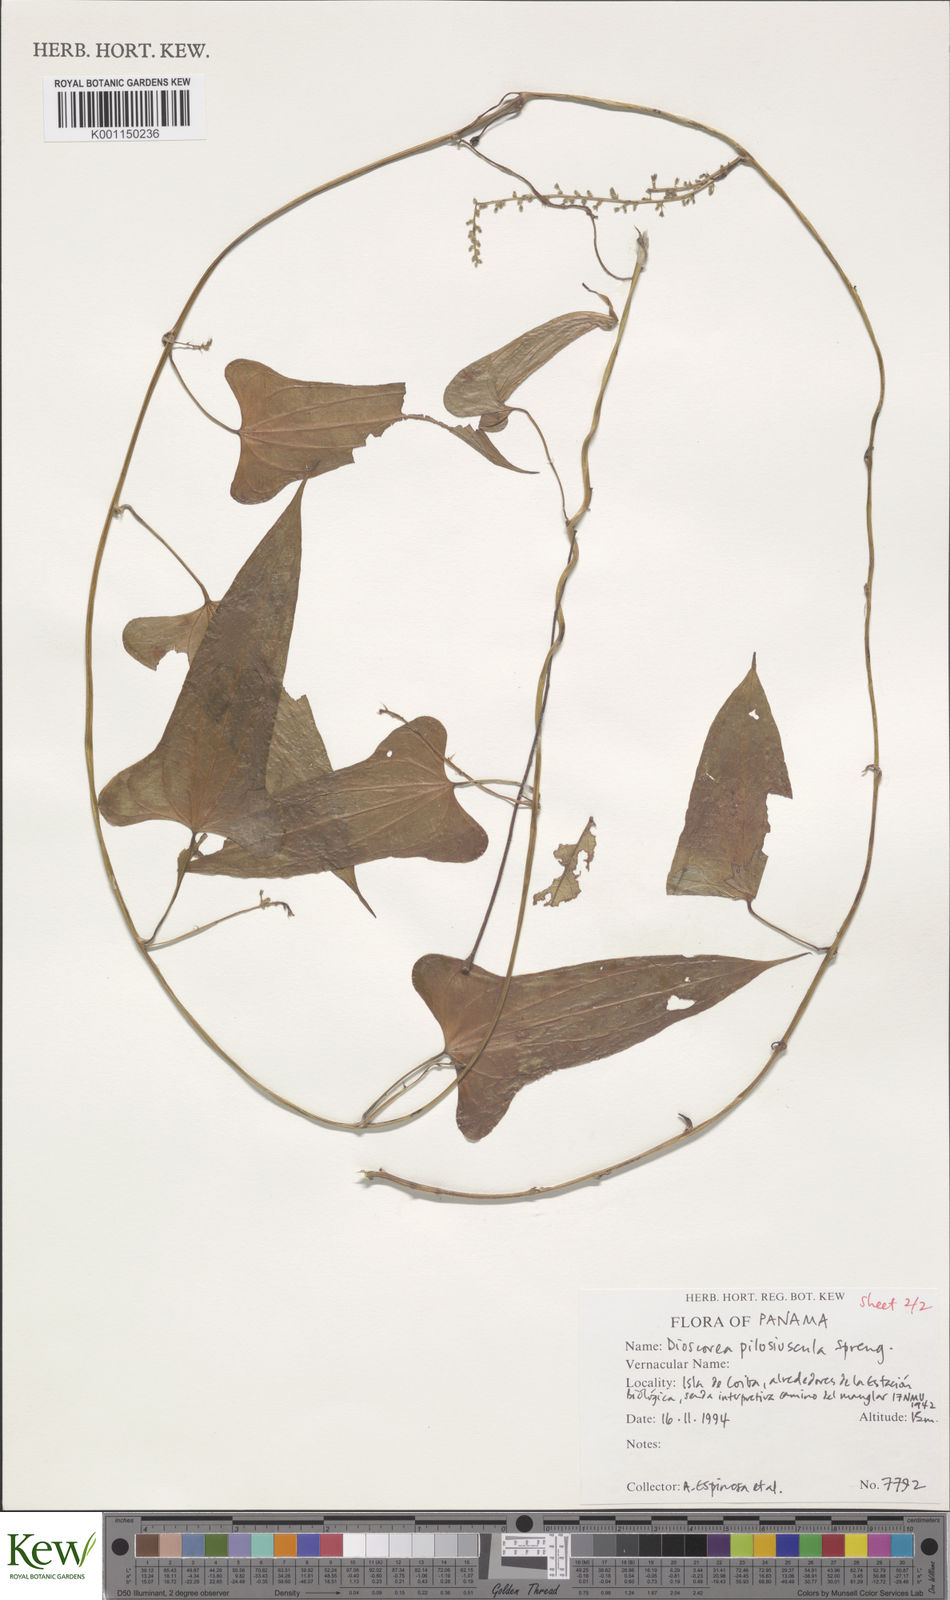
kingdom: Plantae
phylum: Tracheophyta
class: Liliopsida
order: Dioscoreales
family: Dioscoreaceae
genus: Dioscorea
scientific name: Dioscorea pilosiuscula
